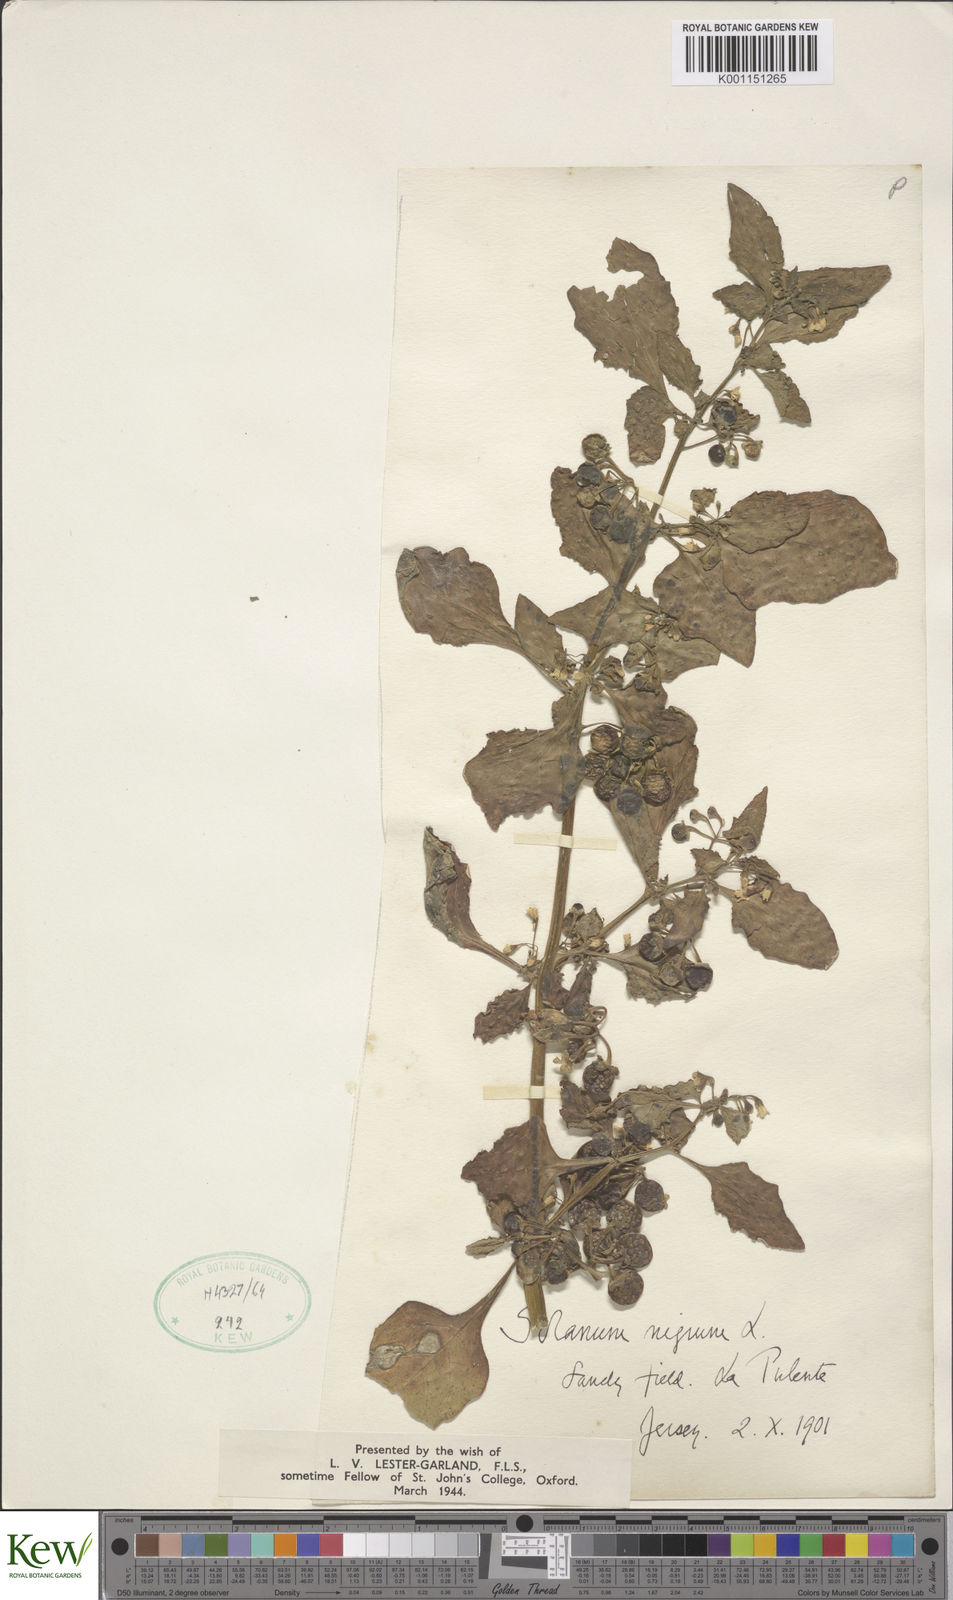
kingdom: Plantae
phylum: Tracheophyta
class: Magnoliopsida
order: Solanales
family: Solanaceae
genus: Solanum
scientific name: Solanum nigrum
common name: Black nightshade
